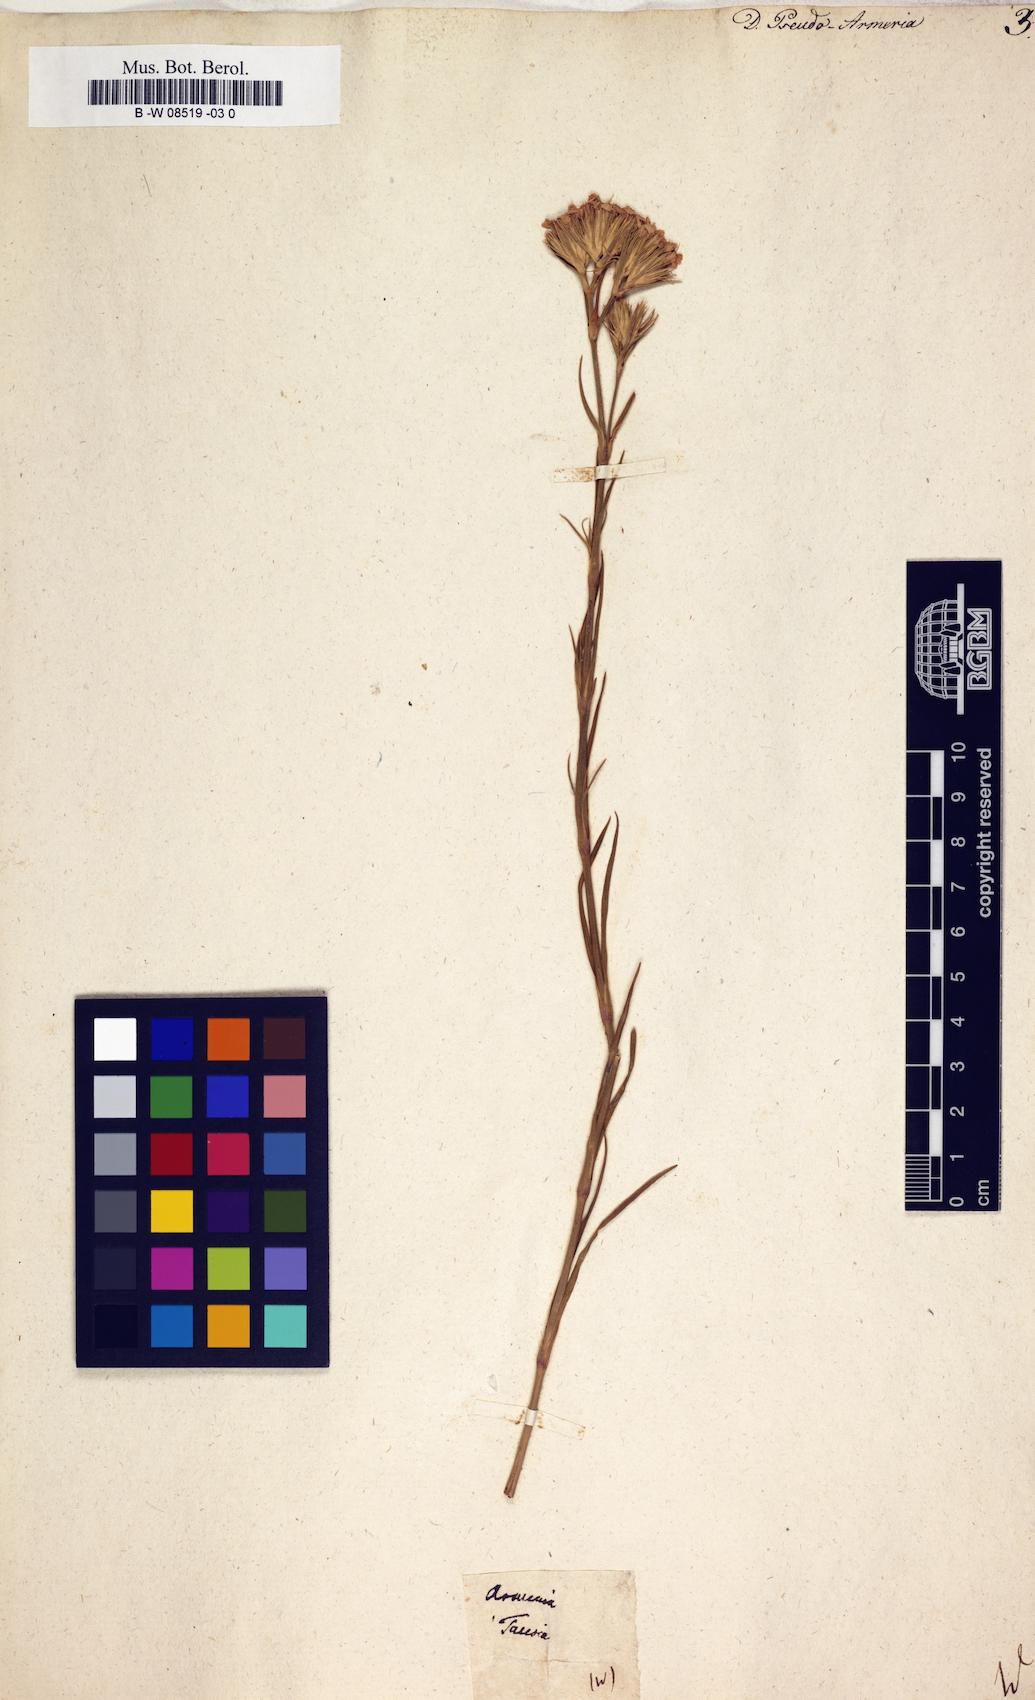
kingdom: Plantae
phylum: Tracheophyta
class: Magnoliopsida
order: Caryophyllales
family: Caryophyllaceae
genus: Dianthus
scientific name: Dianthus pseudoarmeria
